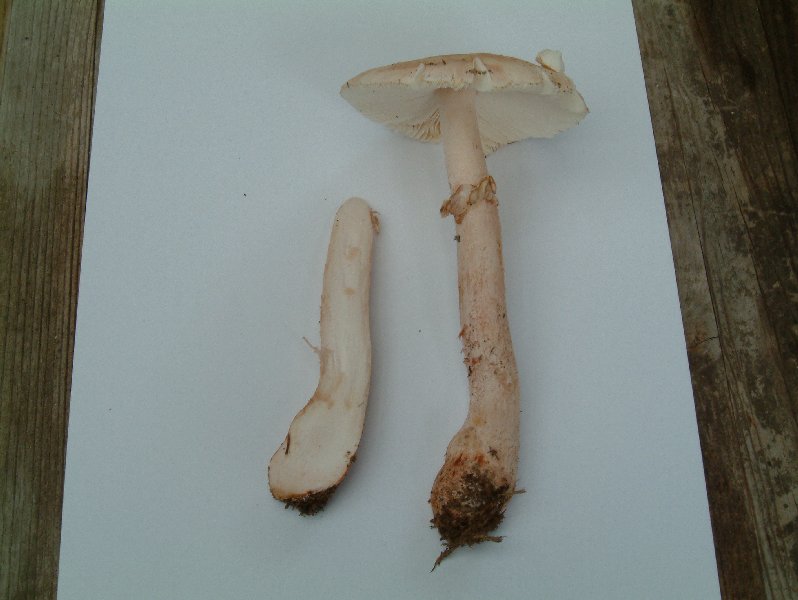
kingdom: Fungi
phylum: Basidiomycota
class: Agaricomycetes
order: Agaricales
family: Amanitaceae
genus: Amanita
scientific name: Amanita rubescens
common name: rødmende fluesvamp
